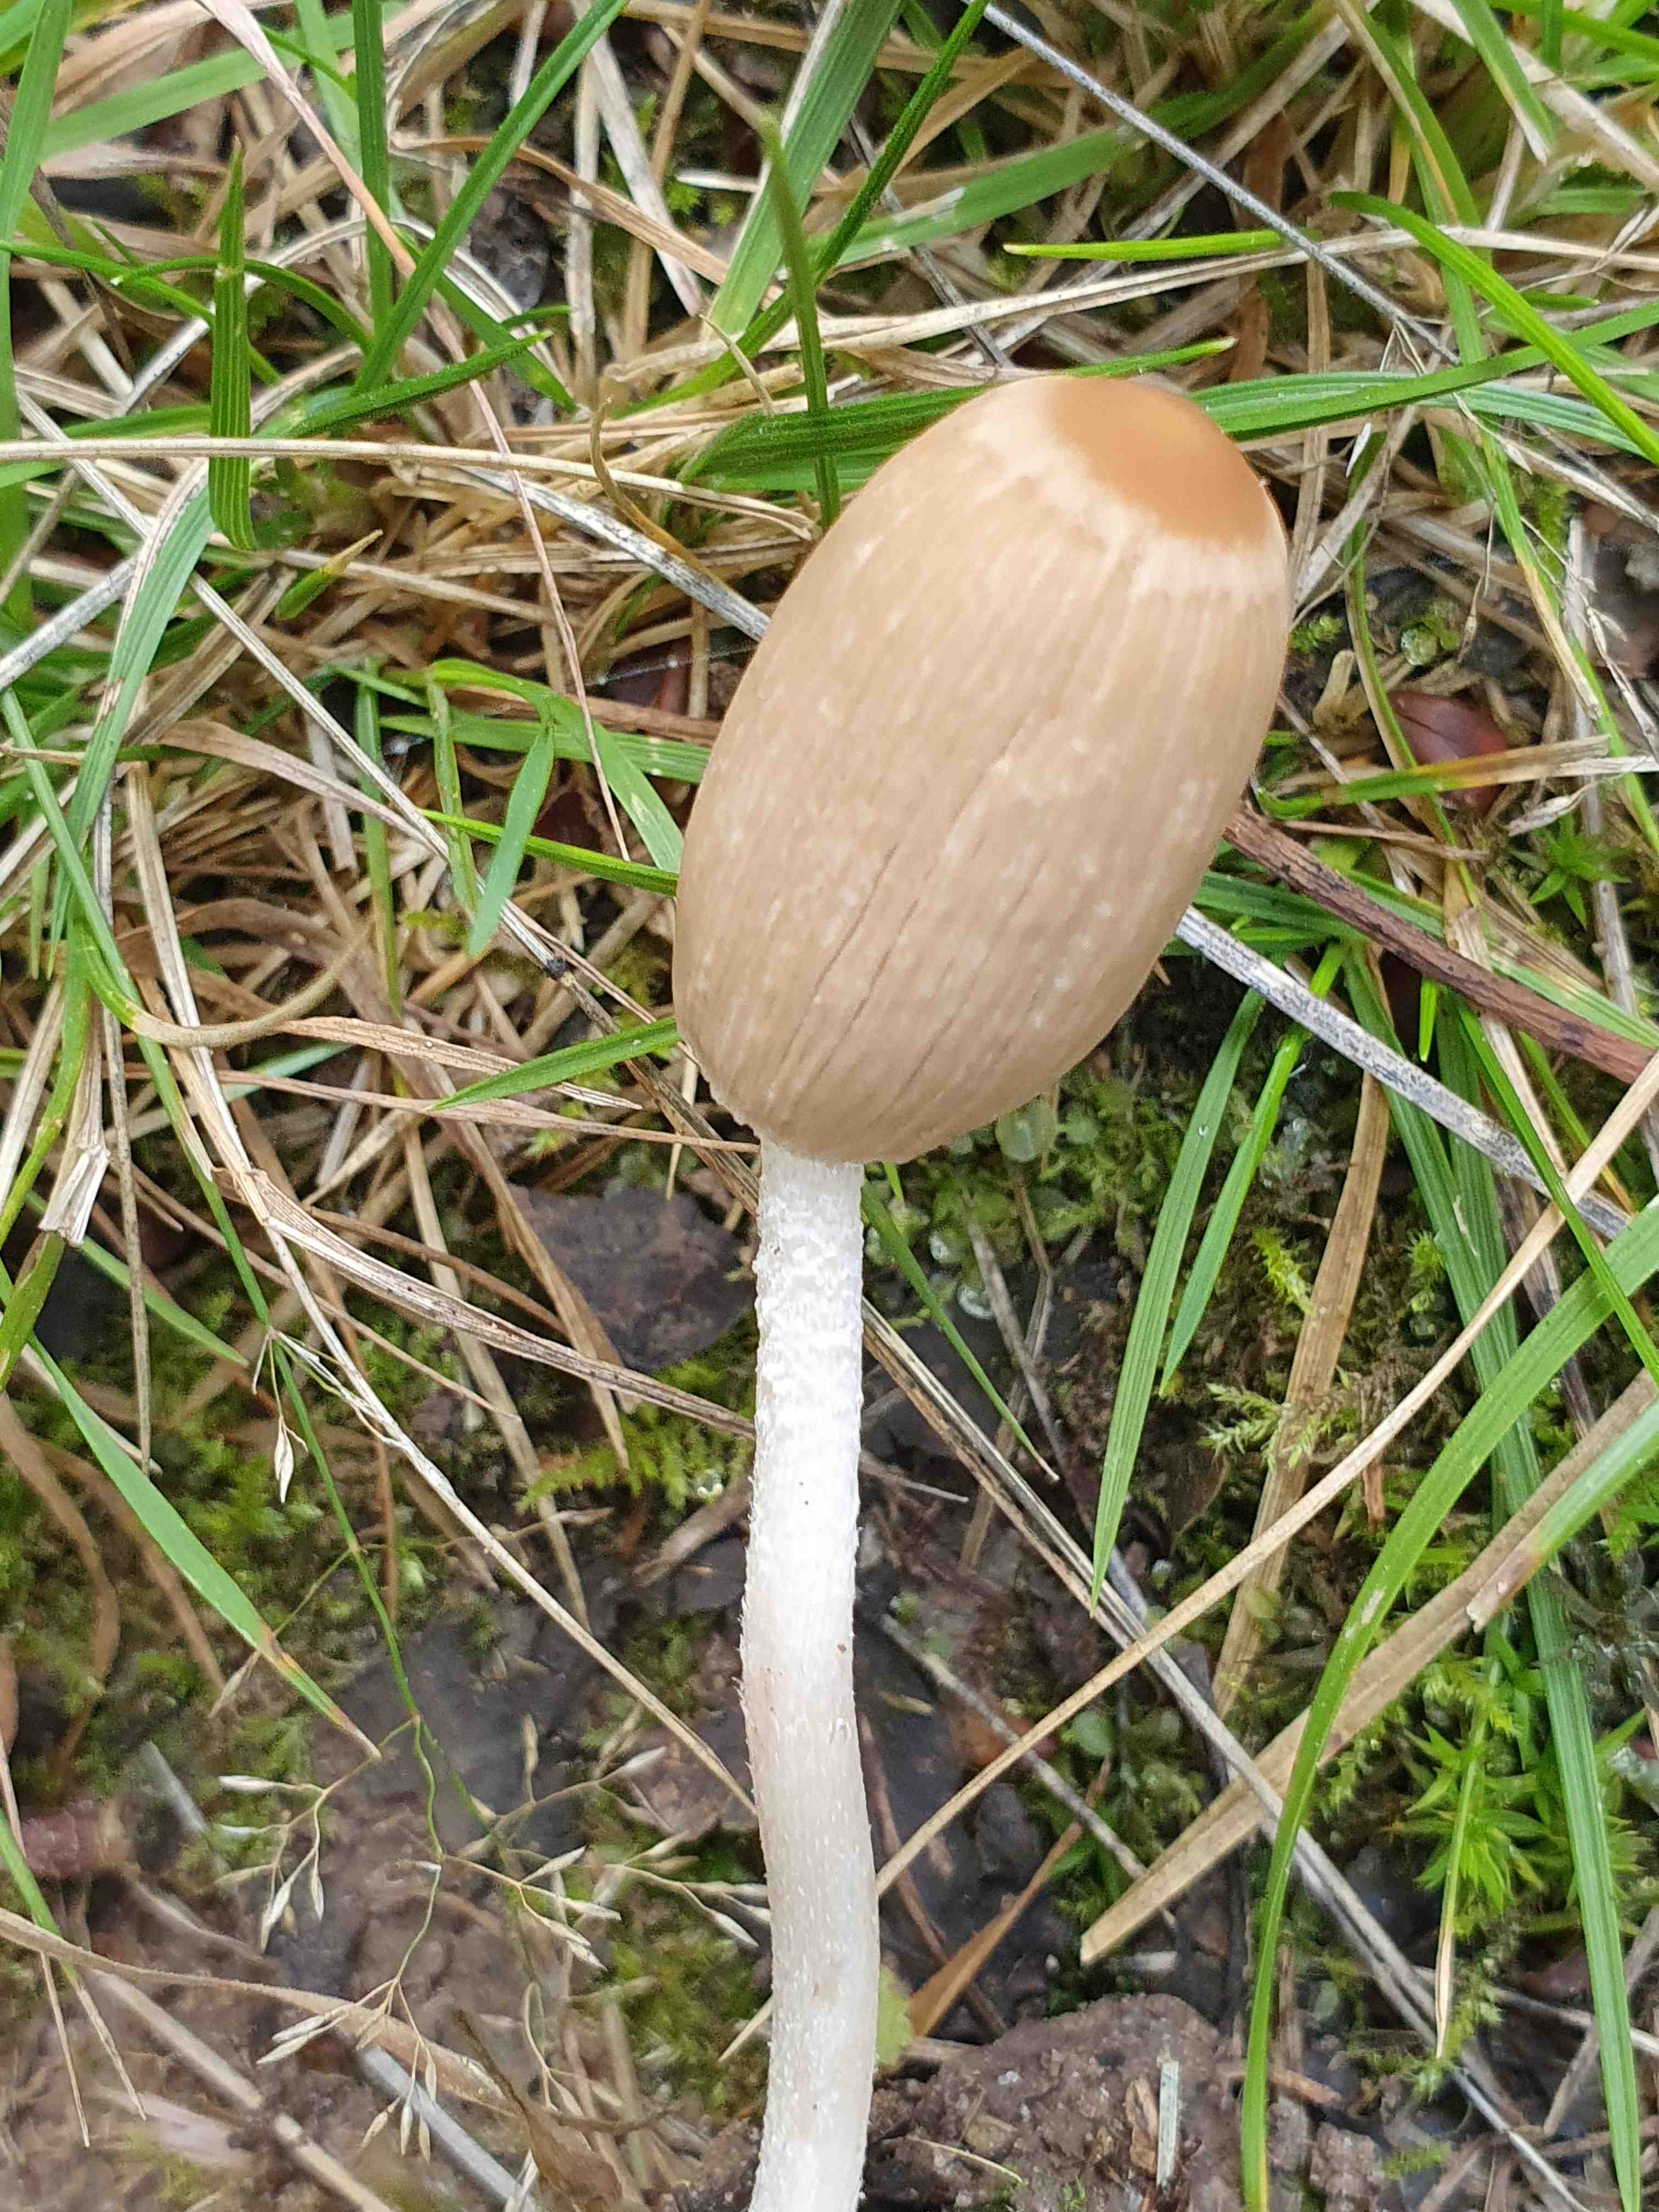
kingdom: Fungi
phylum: Basidiomycota
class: Agaricomycetes
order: Agaricales
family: Psathyrellaceae
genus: Parasola
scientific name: Parasola
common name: hjulhat
